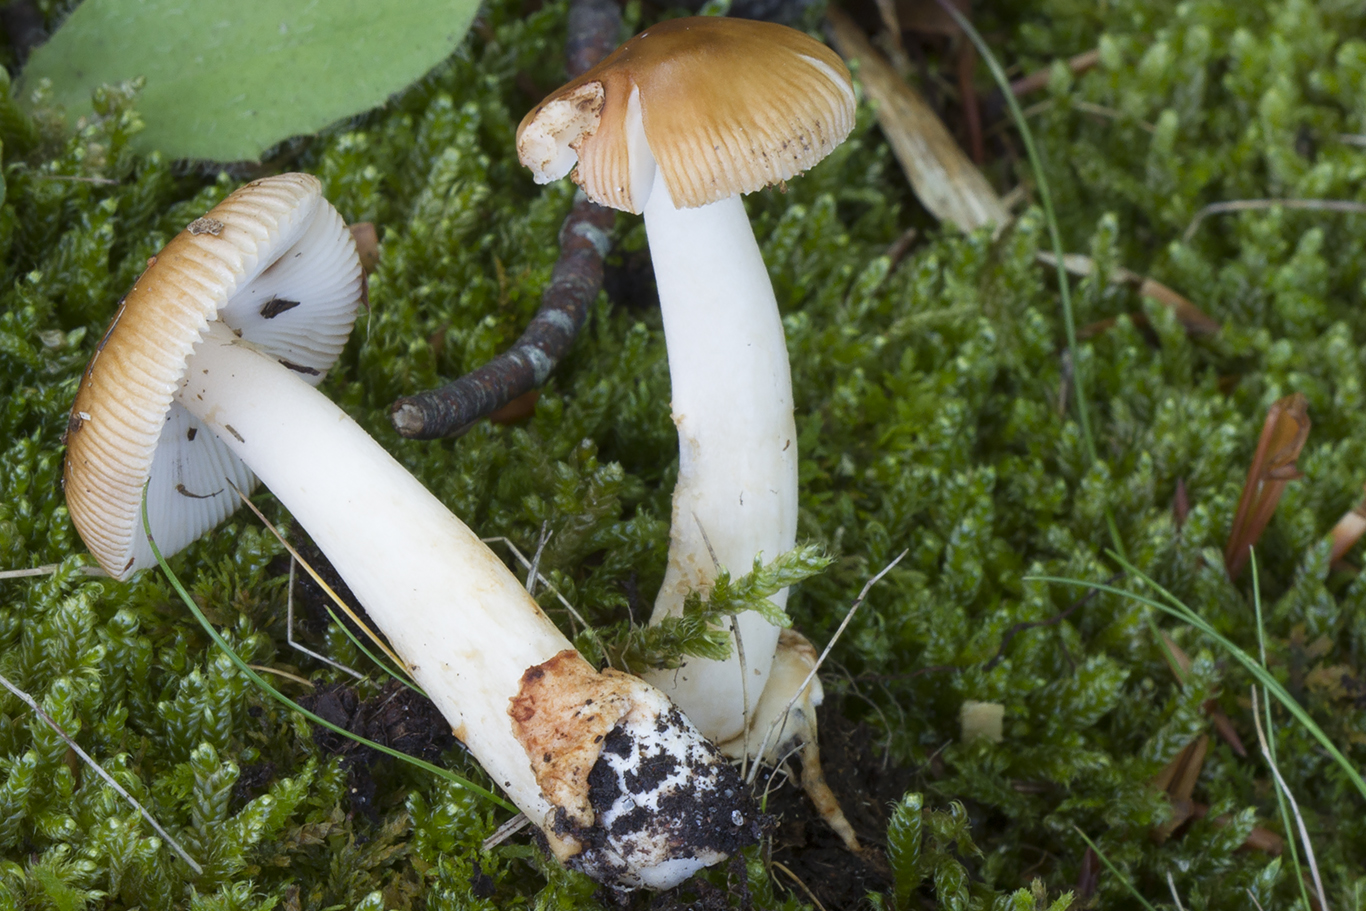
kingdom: Fungi
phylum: Basidiomycota
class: Agaricomycetes
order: Agaricales
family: Amanitaceae
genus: Amanita
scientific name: Amanita fulva
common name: brun kam-fluesvamp
